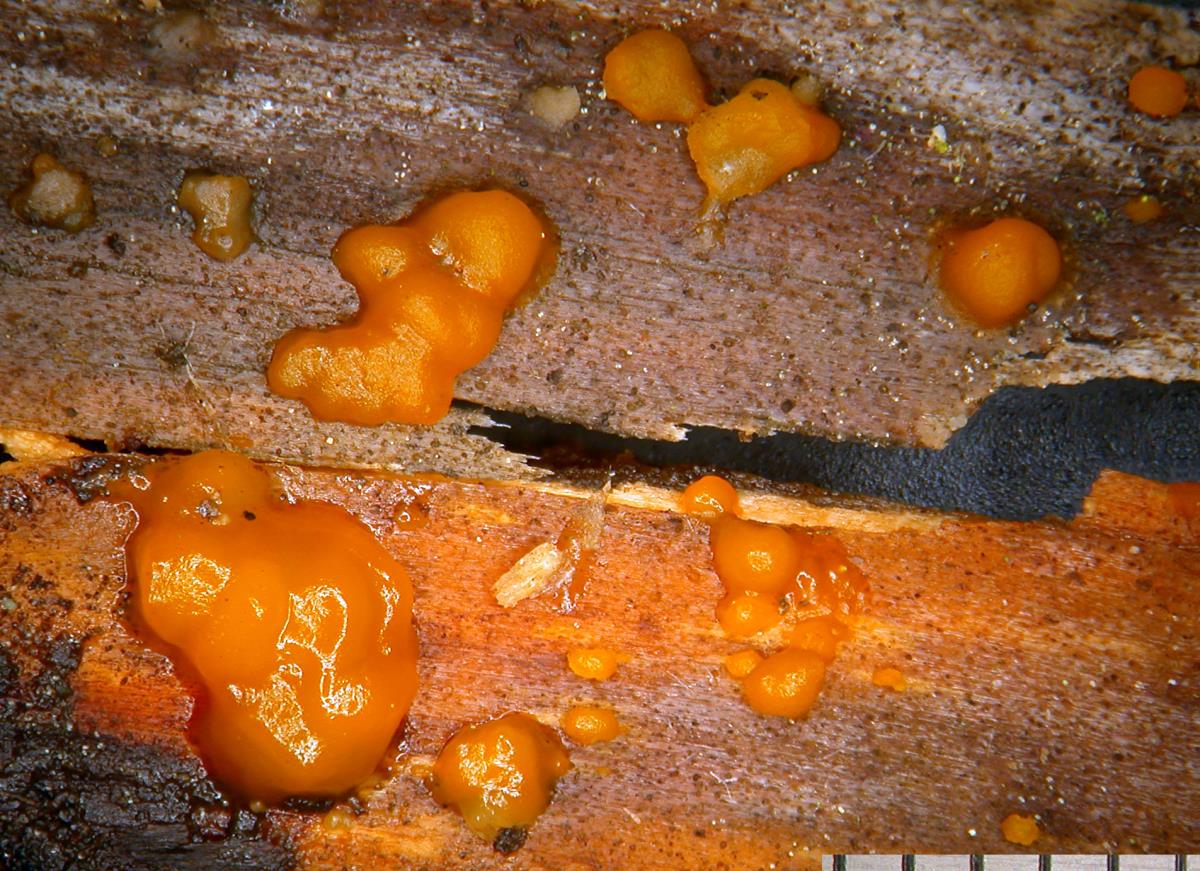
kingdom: Fungi
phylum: Basidiomycota
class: Dacrymycetes
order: Dacrymycetales
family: Dacrymycetaceae
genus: Dacrymyces
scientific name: Dacrymyces
